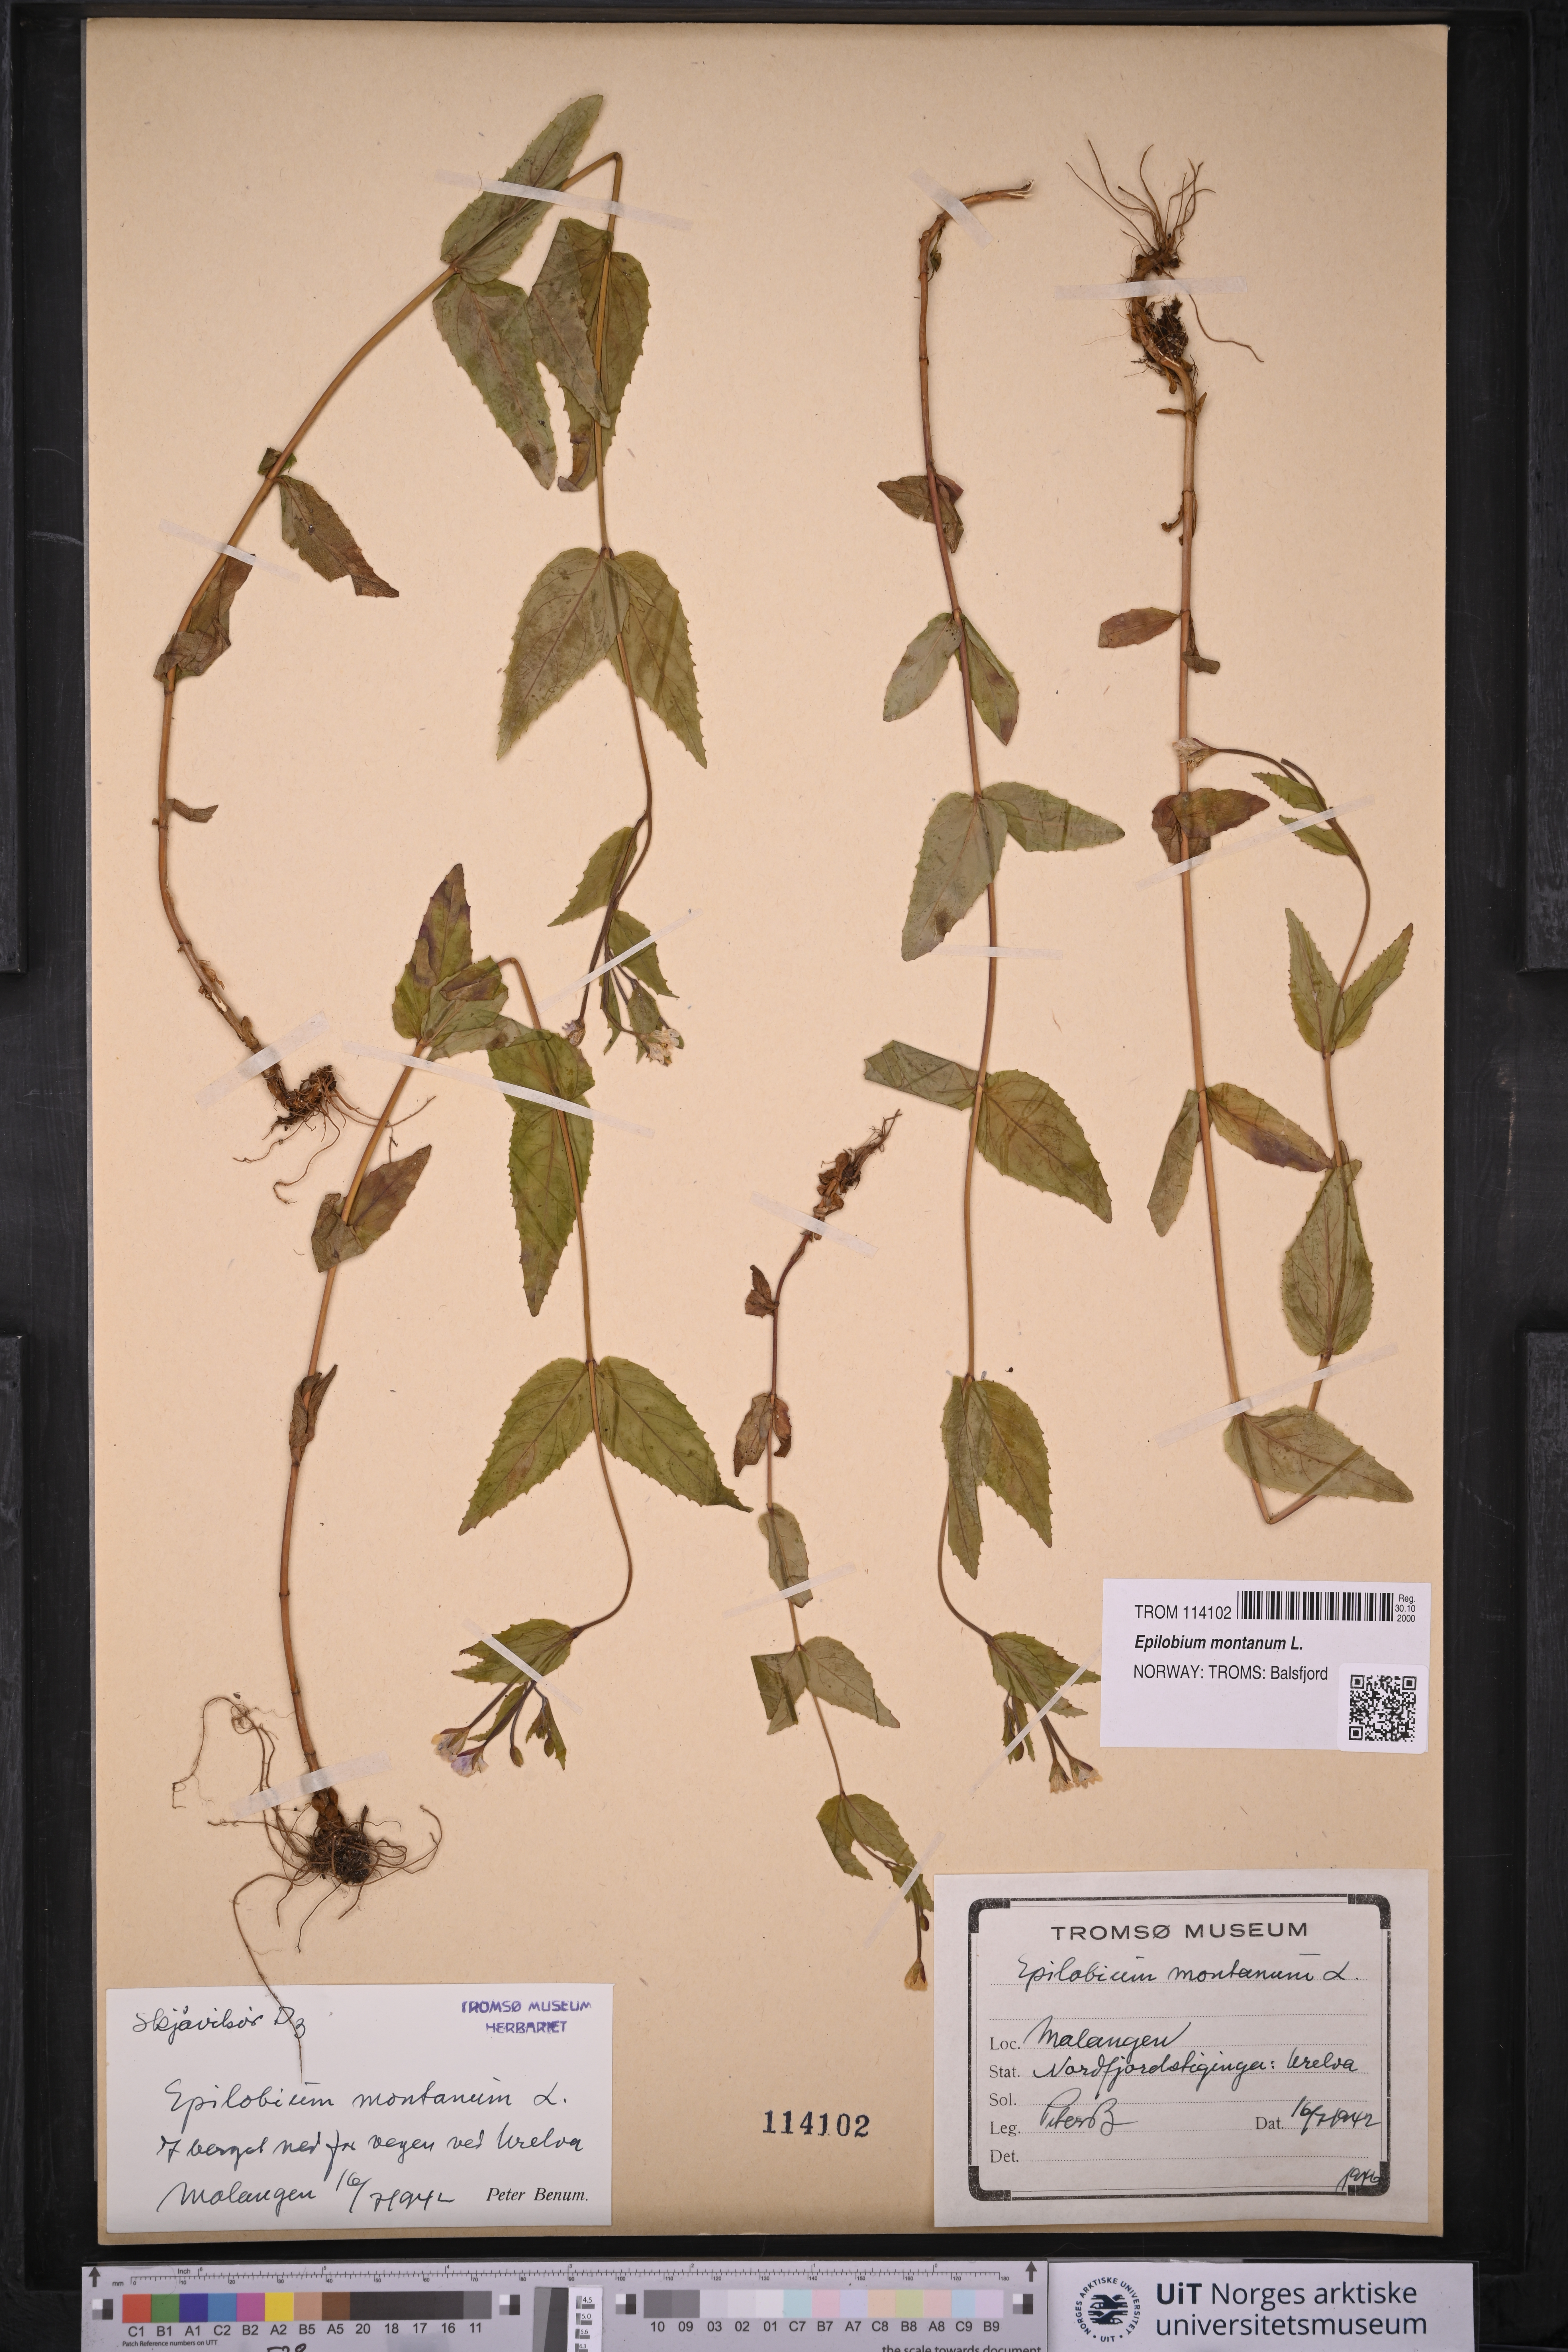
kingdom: Plantae
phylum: Tracheophyta
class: Magnoliopsida
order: Myrtales
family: Onagraceae
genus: Epilobium
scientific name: Epilobium montanum
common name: Broad-leaved willowherb
